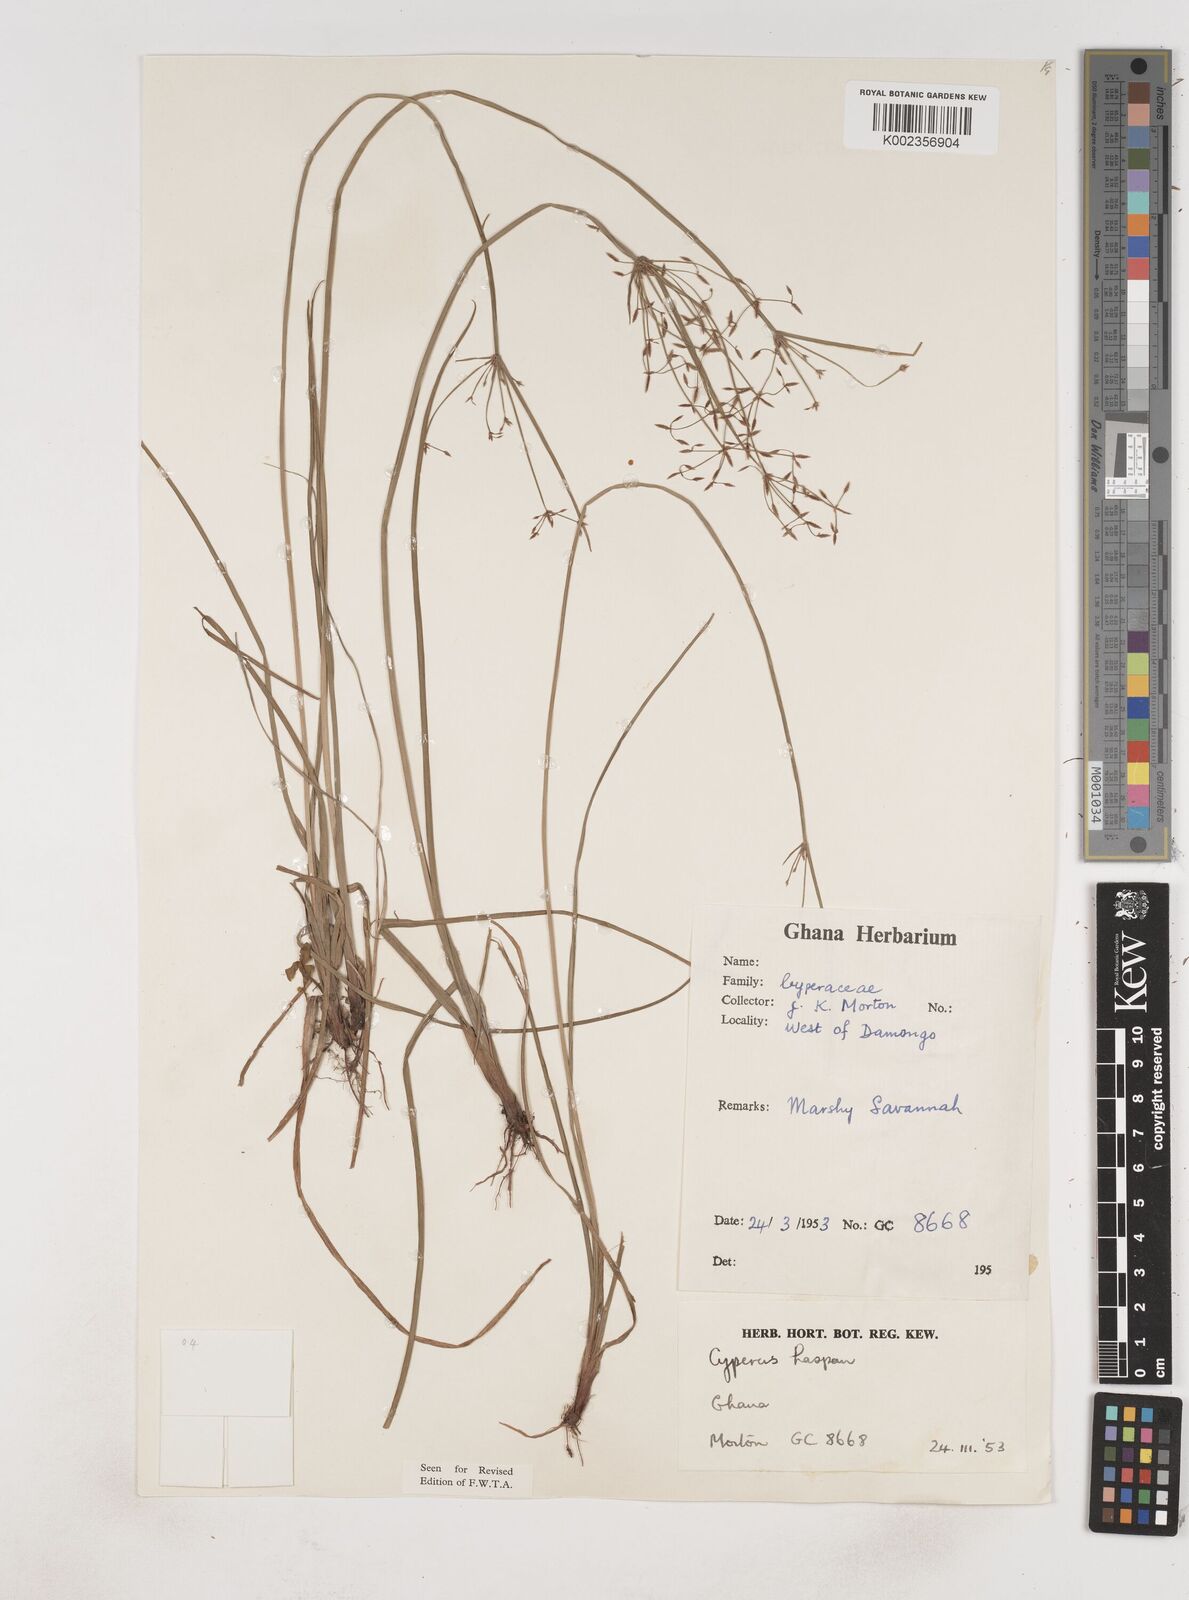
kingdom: Plantae
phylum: Tracheophyta
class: Liliopsida
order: Poales
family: Cyperaceae
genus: Cyperus
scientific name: Cyperus haspan
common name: Haspan flatsedge
